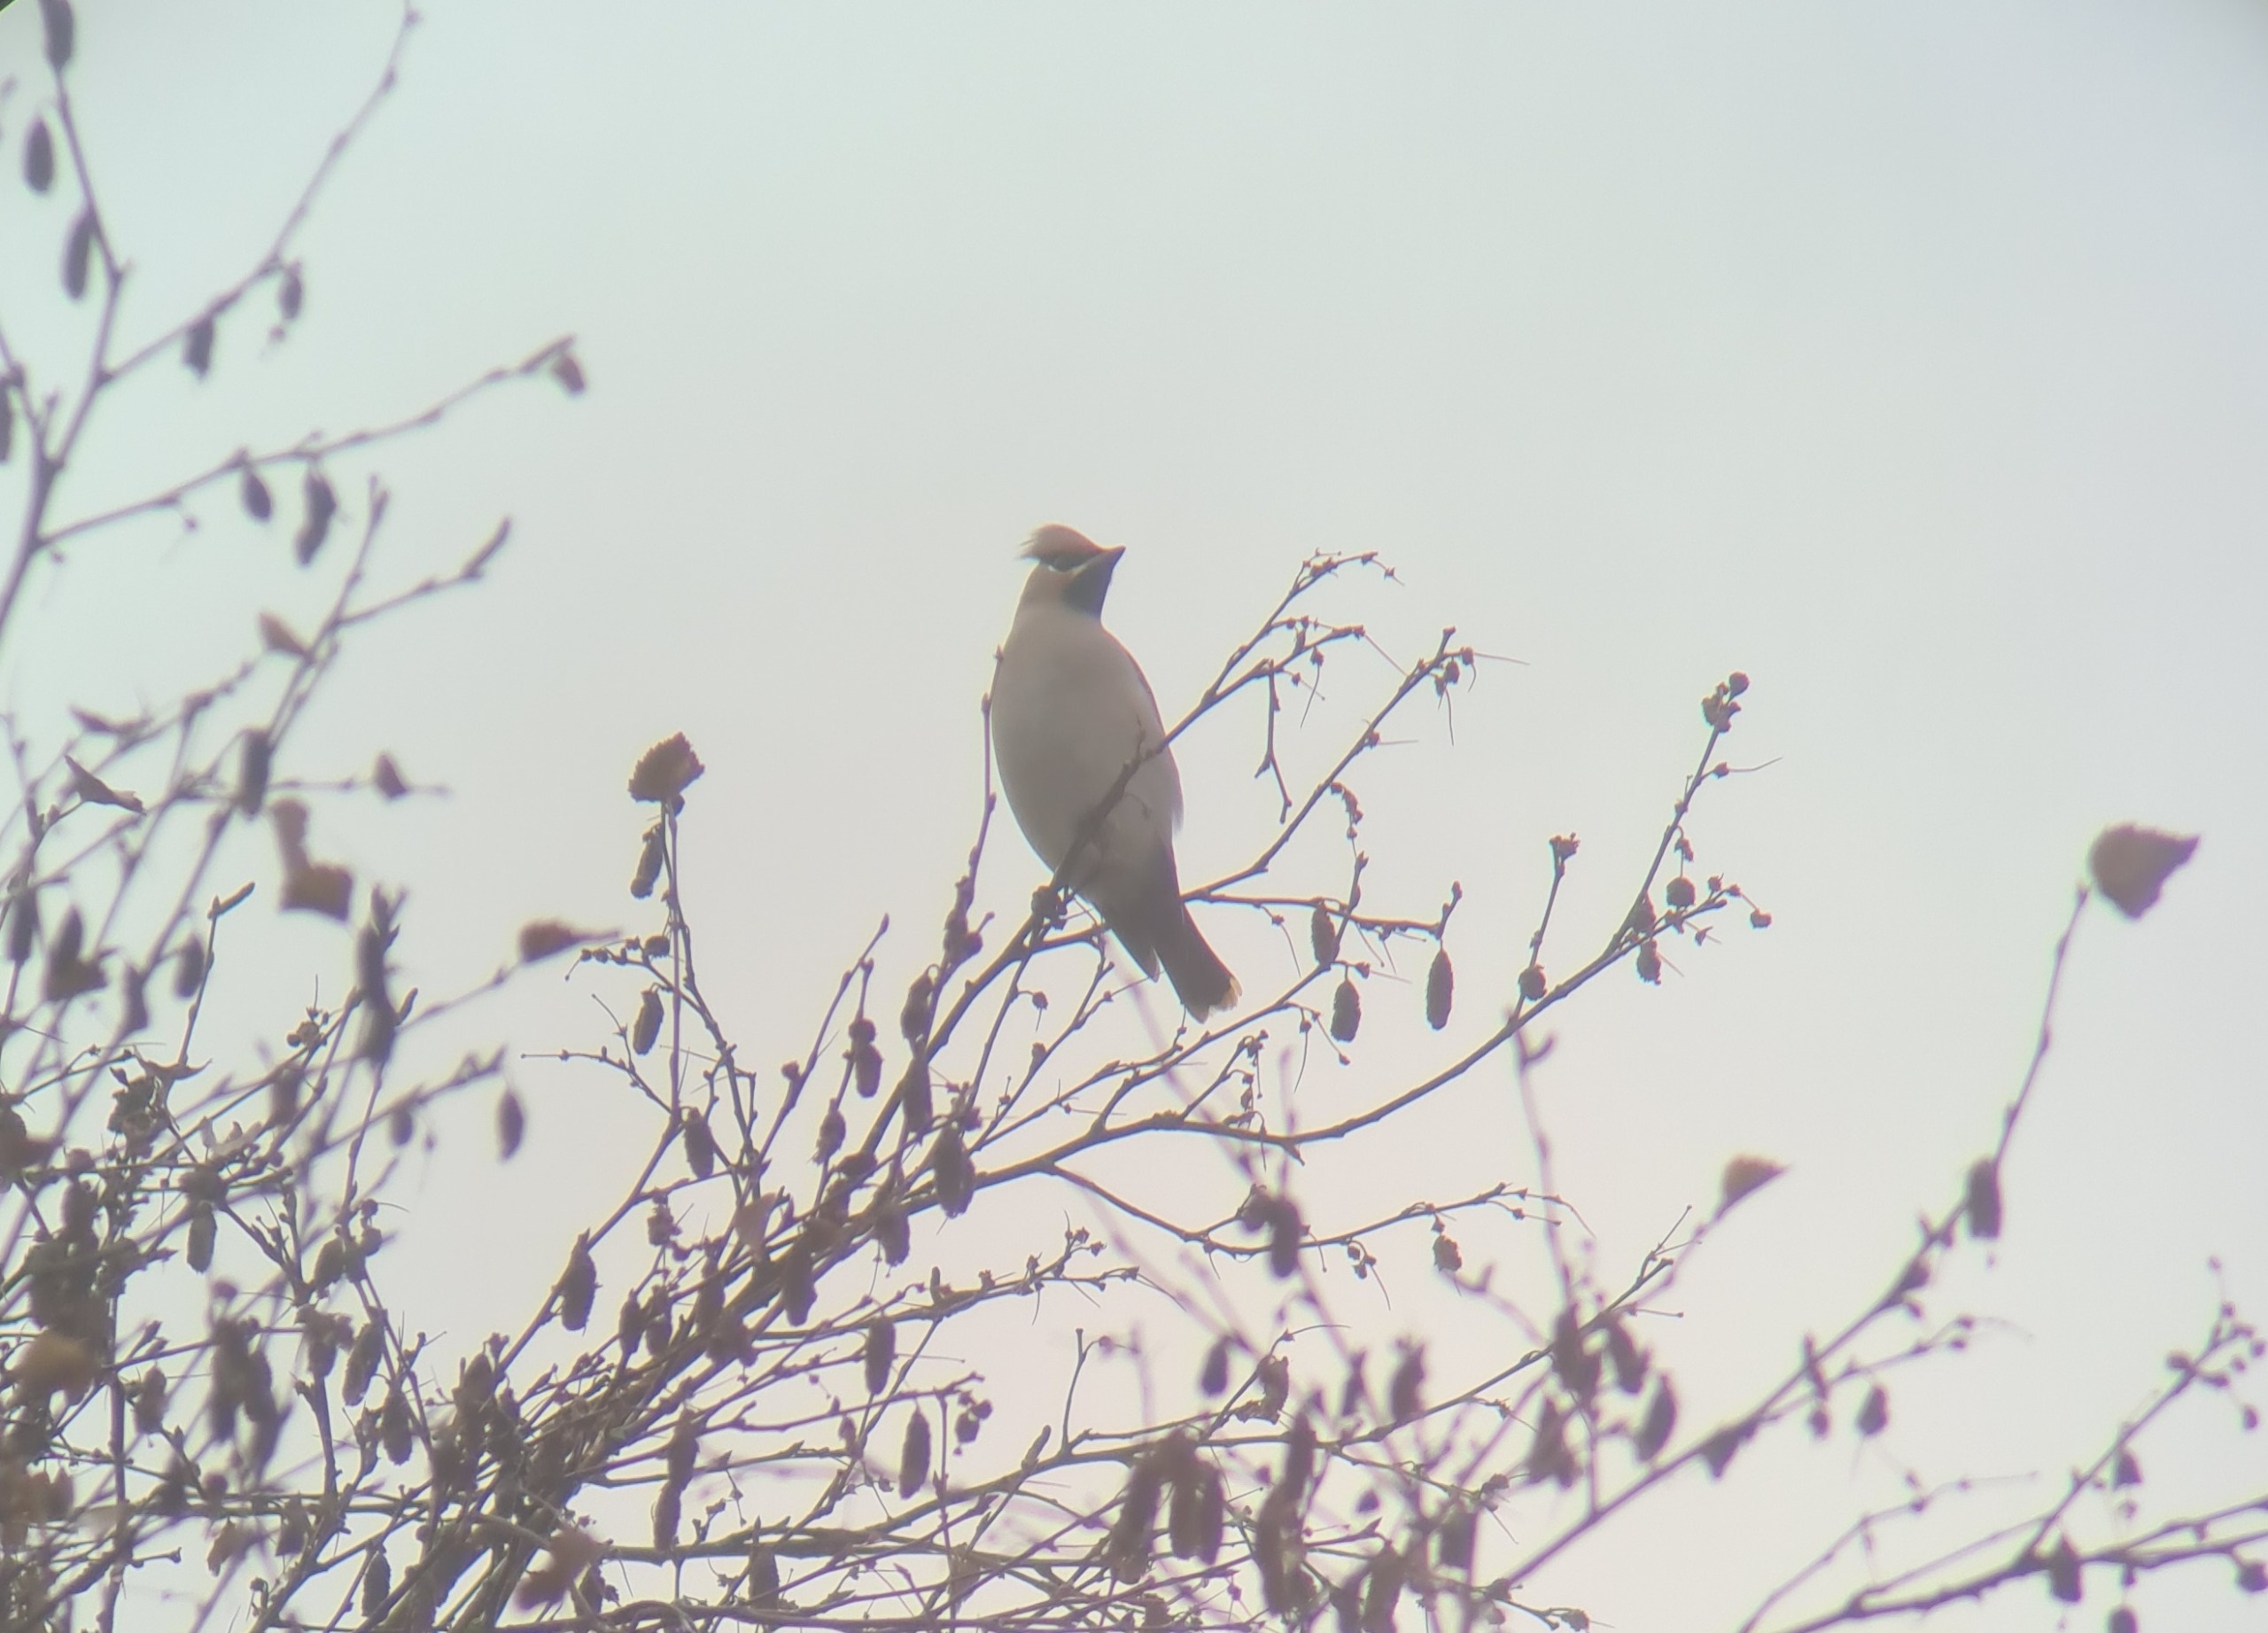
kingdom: Animalia
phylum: Chordata
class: Aves
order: Passeriformes
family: Bombycillidae
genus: Bombycilla
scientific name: Bombycilla garrulus
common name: Silkehale
